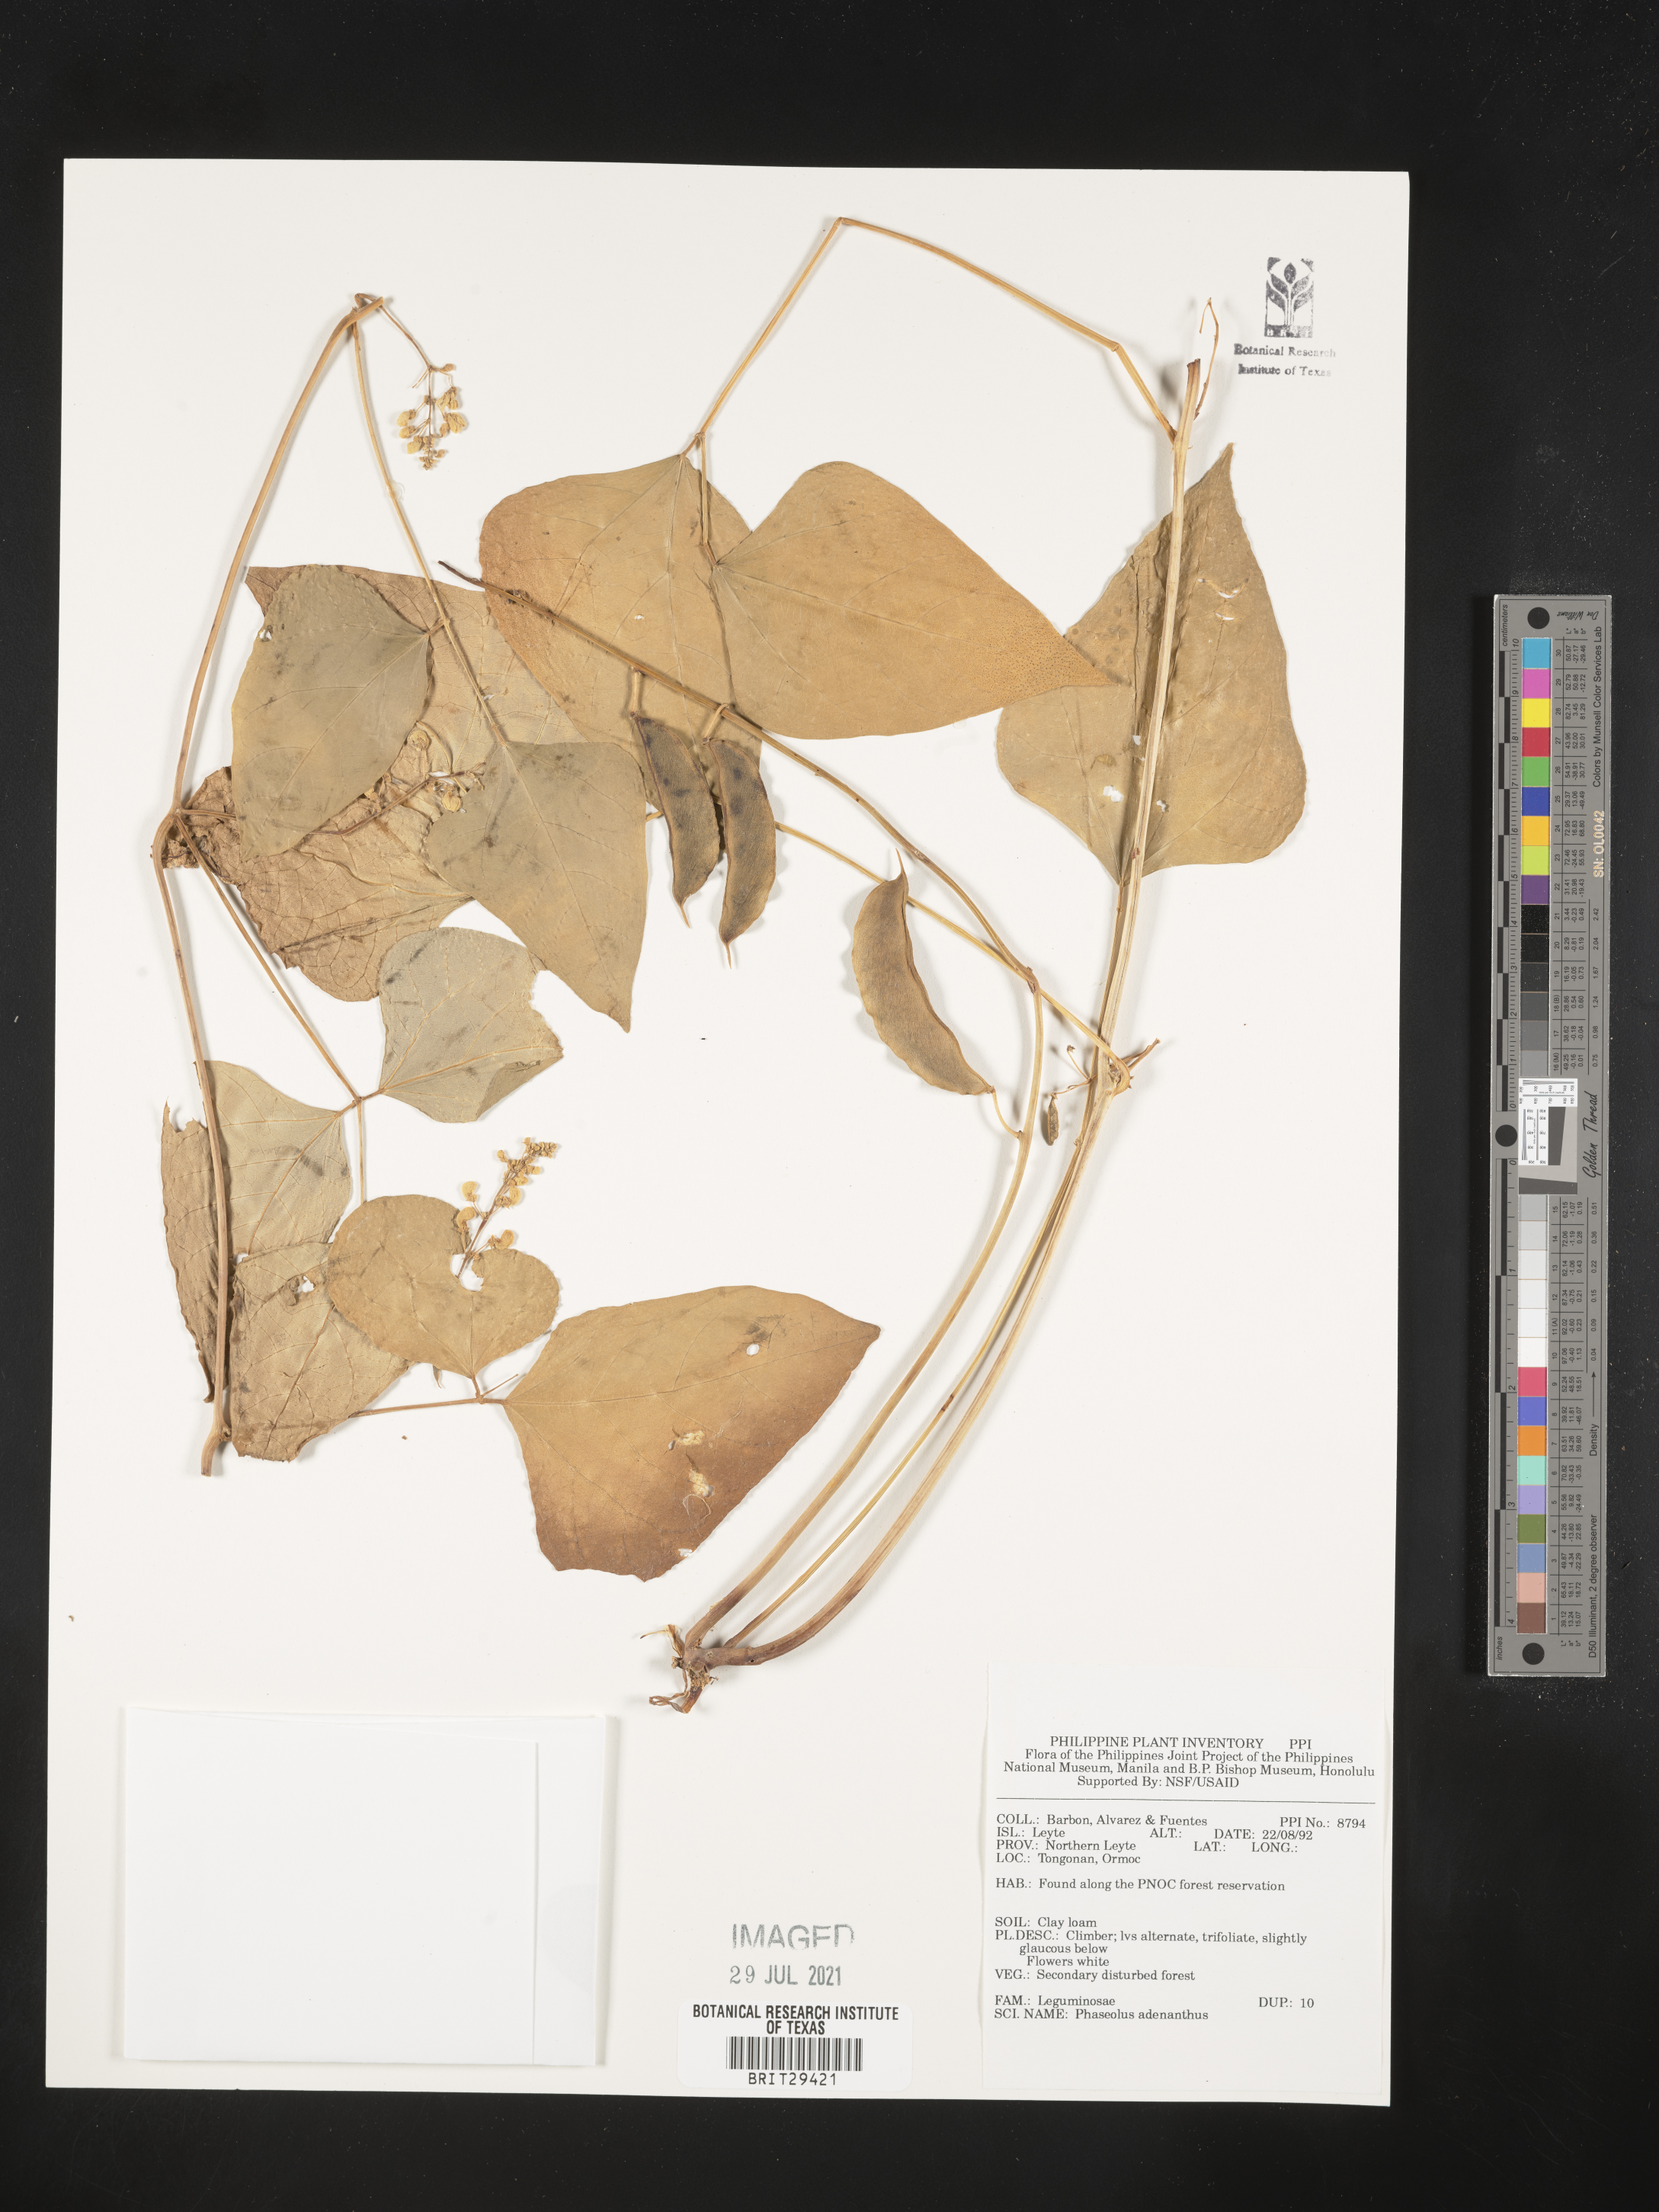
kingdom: Plantae
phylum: Tracheophyta
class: Magnoliopsida
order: Fabales
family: Fabaceae
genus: Leptospron
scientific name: Leptospron adenanthum
